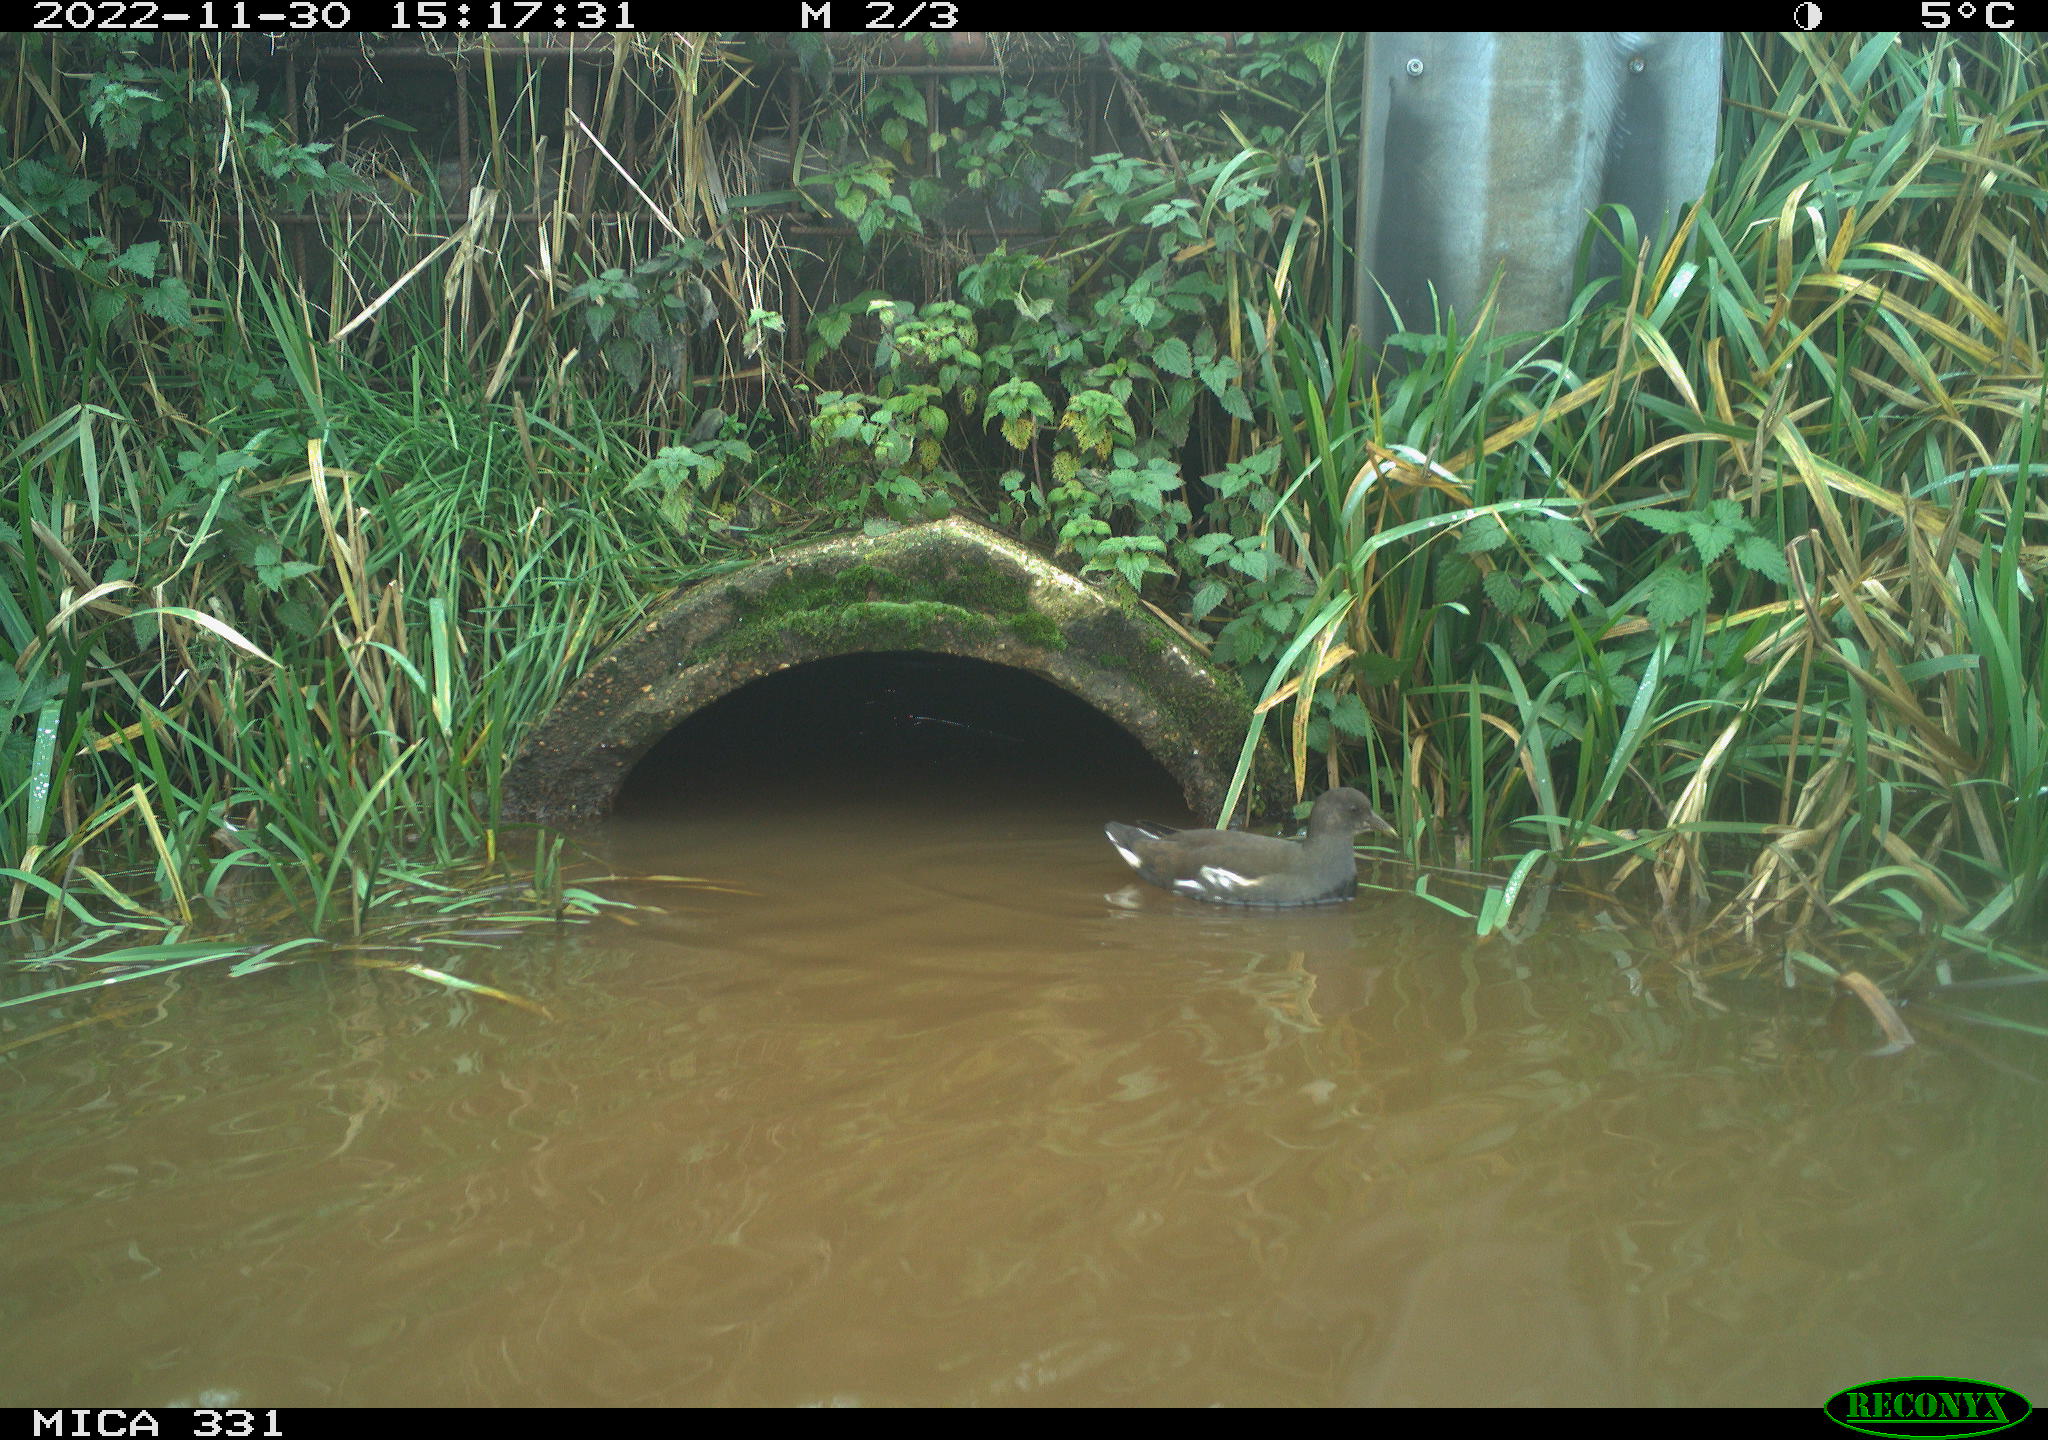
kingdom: Animalia
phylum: Chordata
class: Aves
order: Gruiformes
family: Rallidae
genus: Gallinula
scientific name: Gallinula chloropus
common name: Common moorhen
